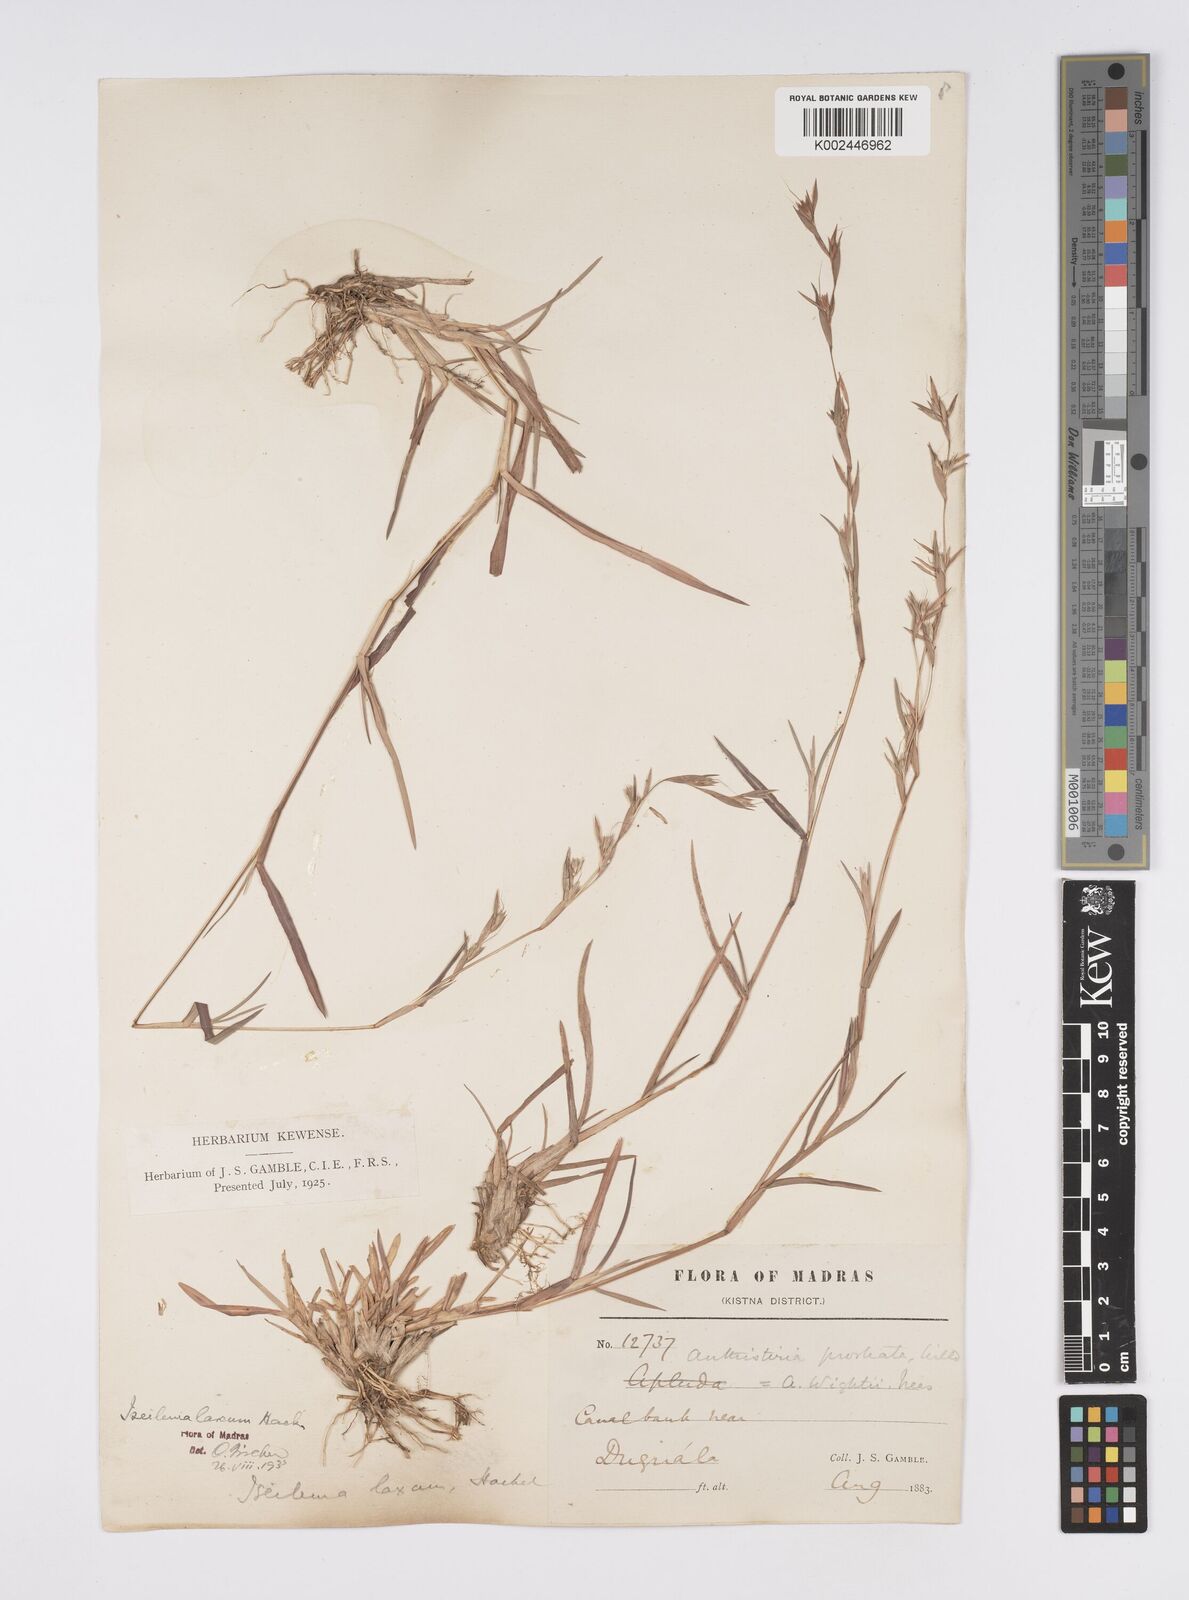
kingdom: Plantae
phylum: Tracheophyta
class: Liliopsida
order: Poales
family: Poaceae
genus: Iseilema
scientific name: Iseilema prostratum
